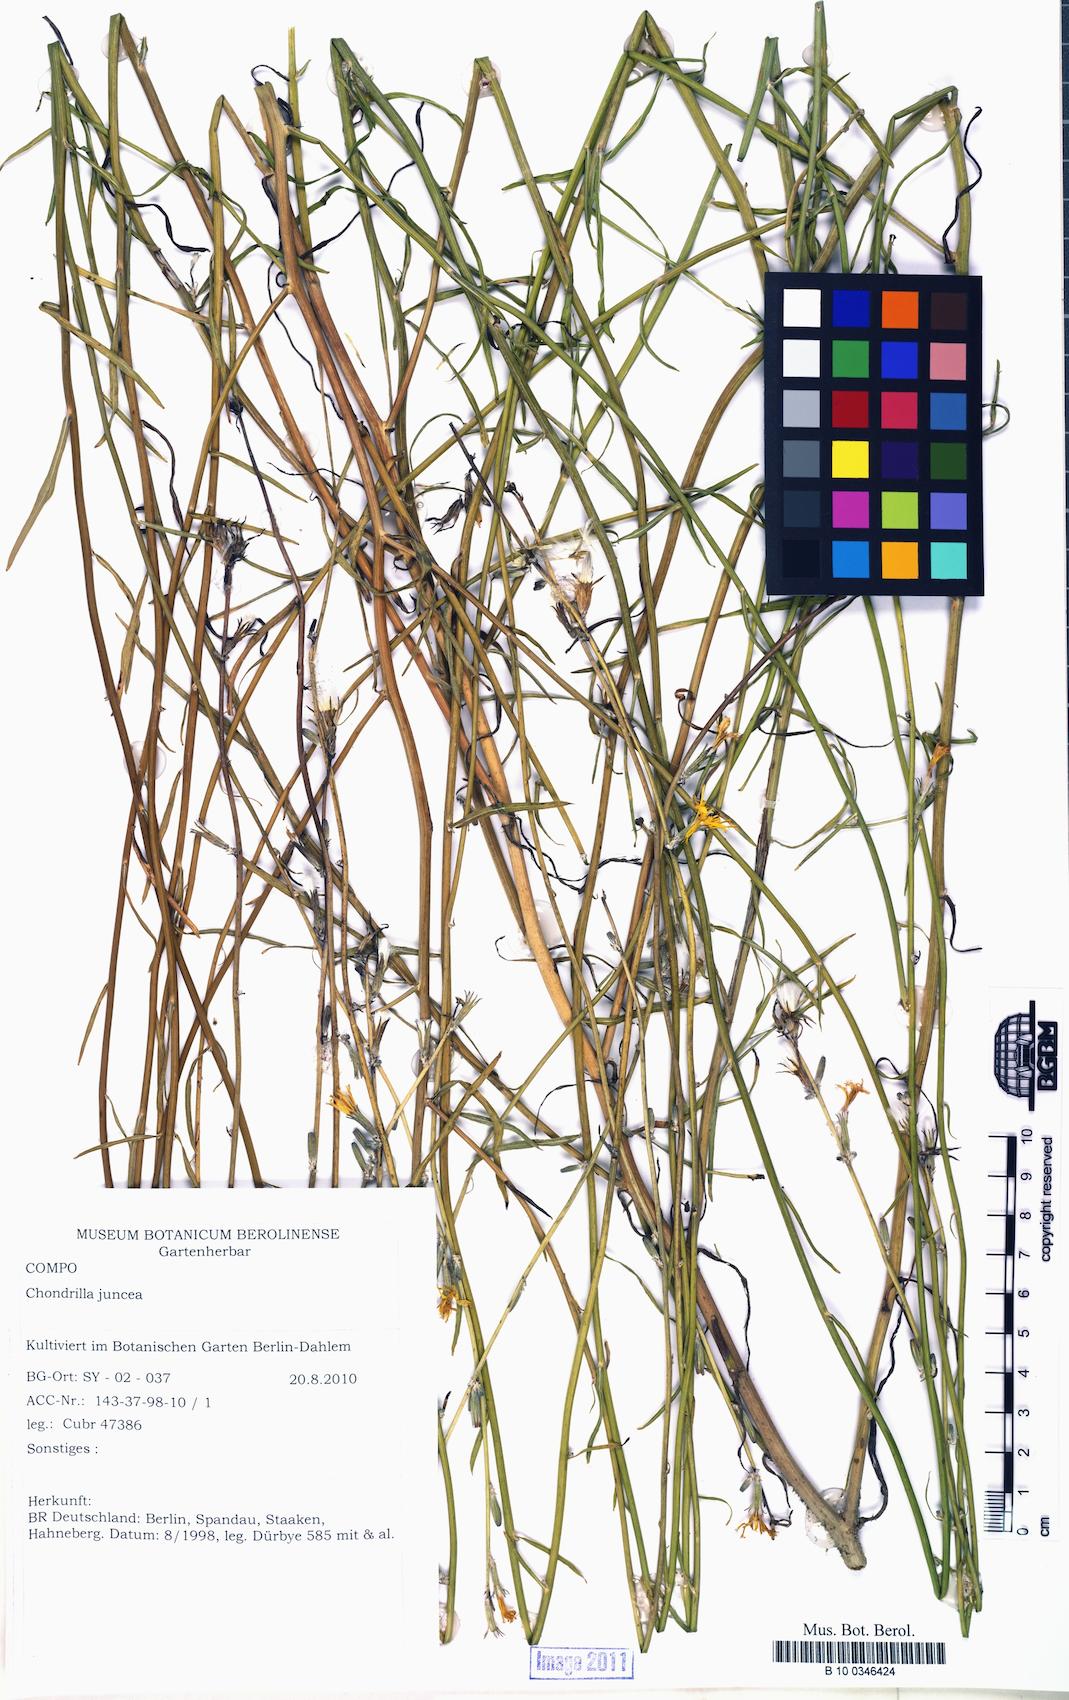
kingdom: Plantae
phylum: Tracheophyta
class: Magnoliopsida
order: Asterales
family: Asteraceae
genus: Chondrilla
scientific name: Chondrilla juncea
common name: Skeleton weed
